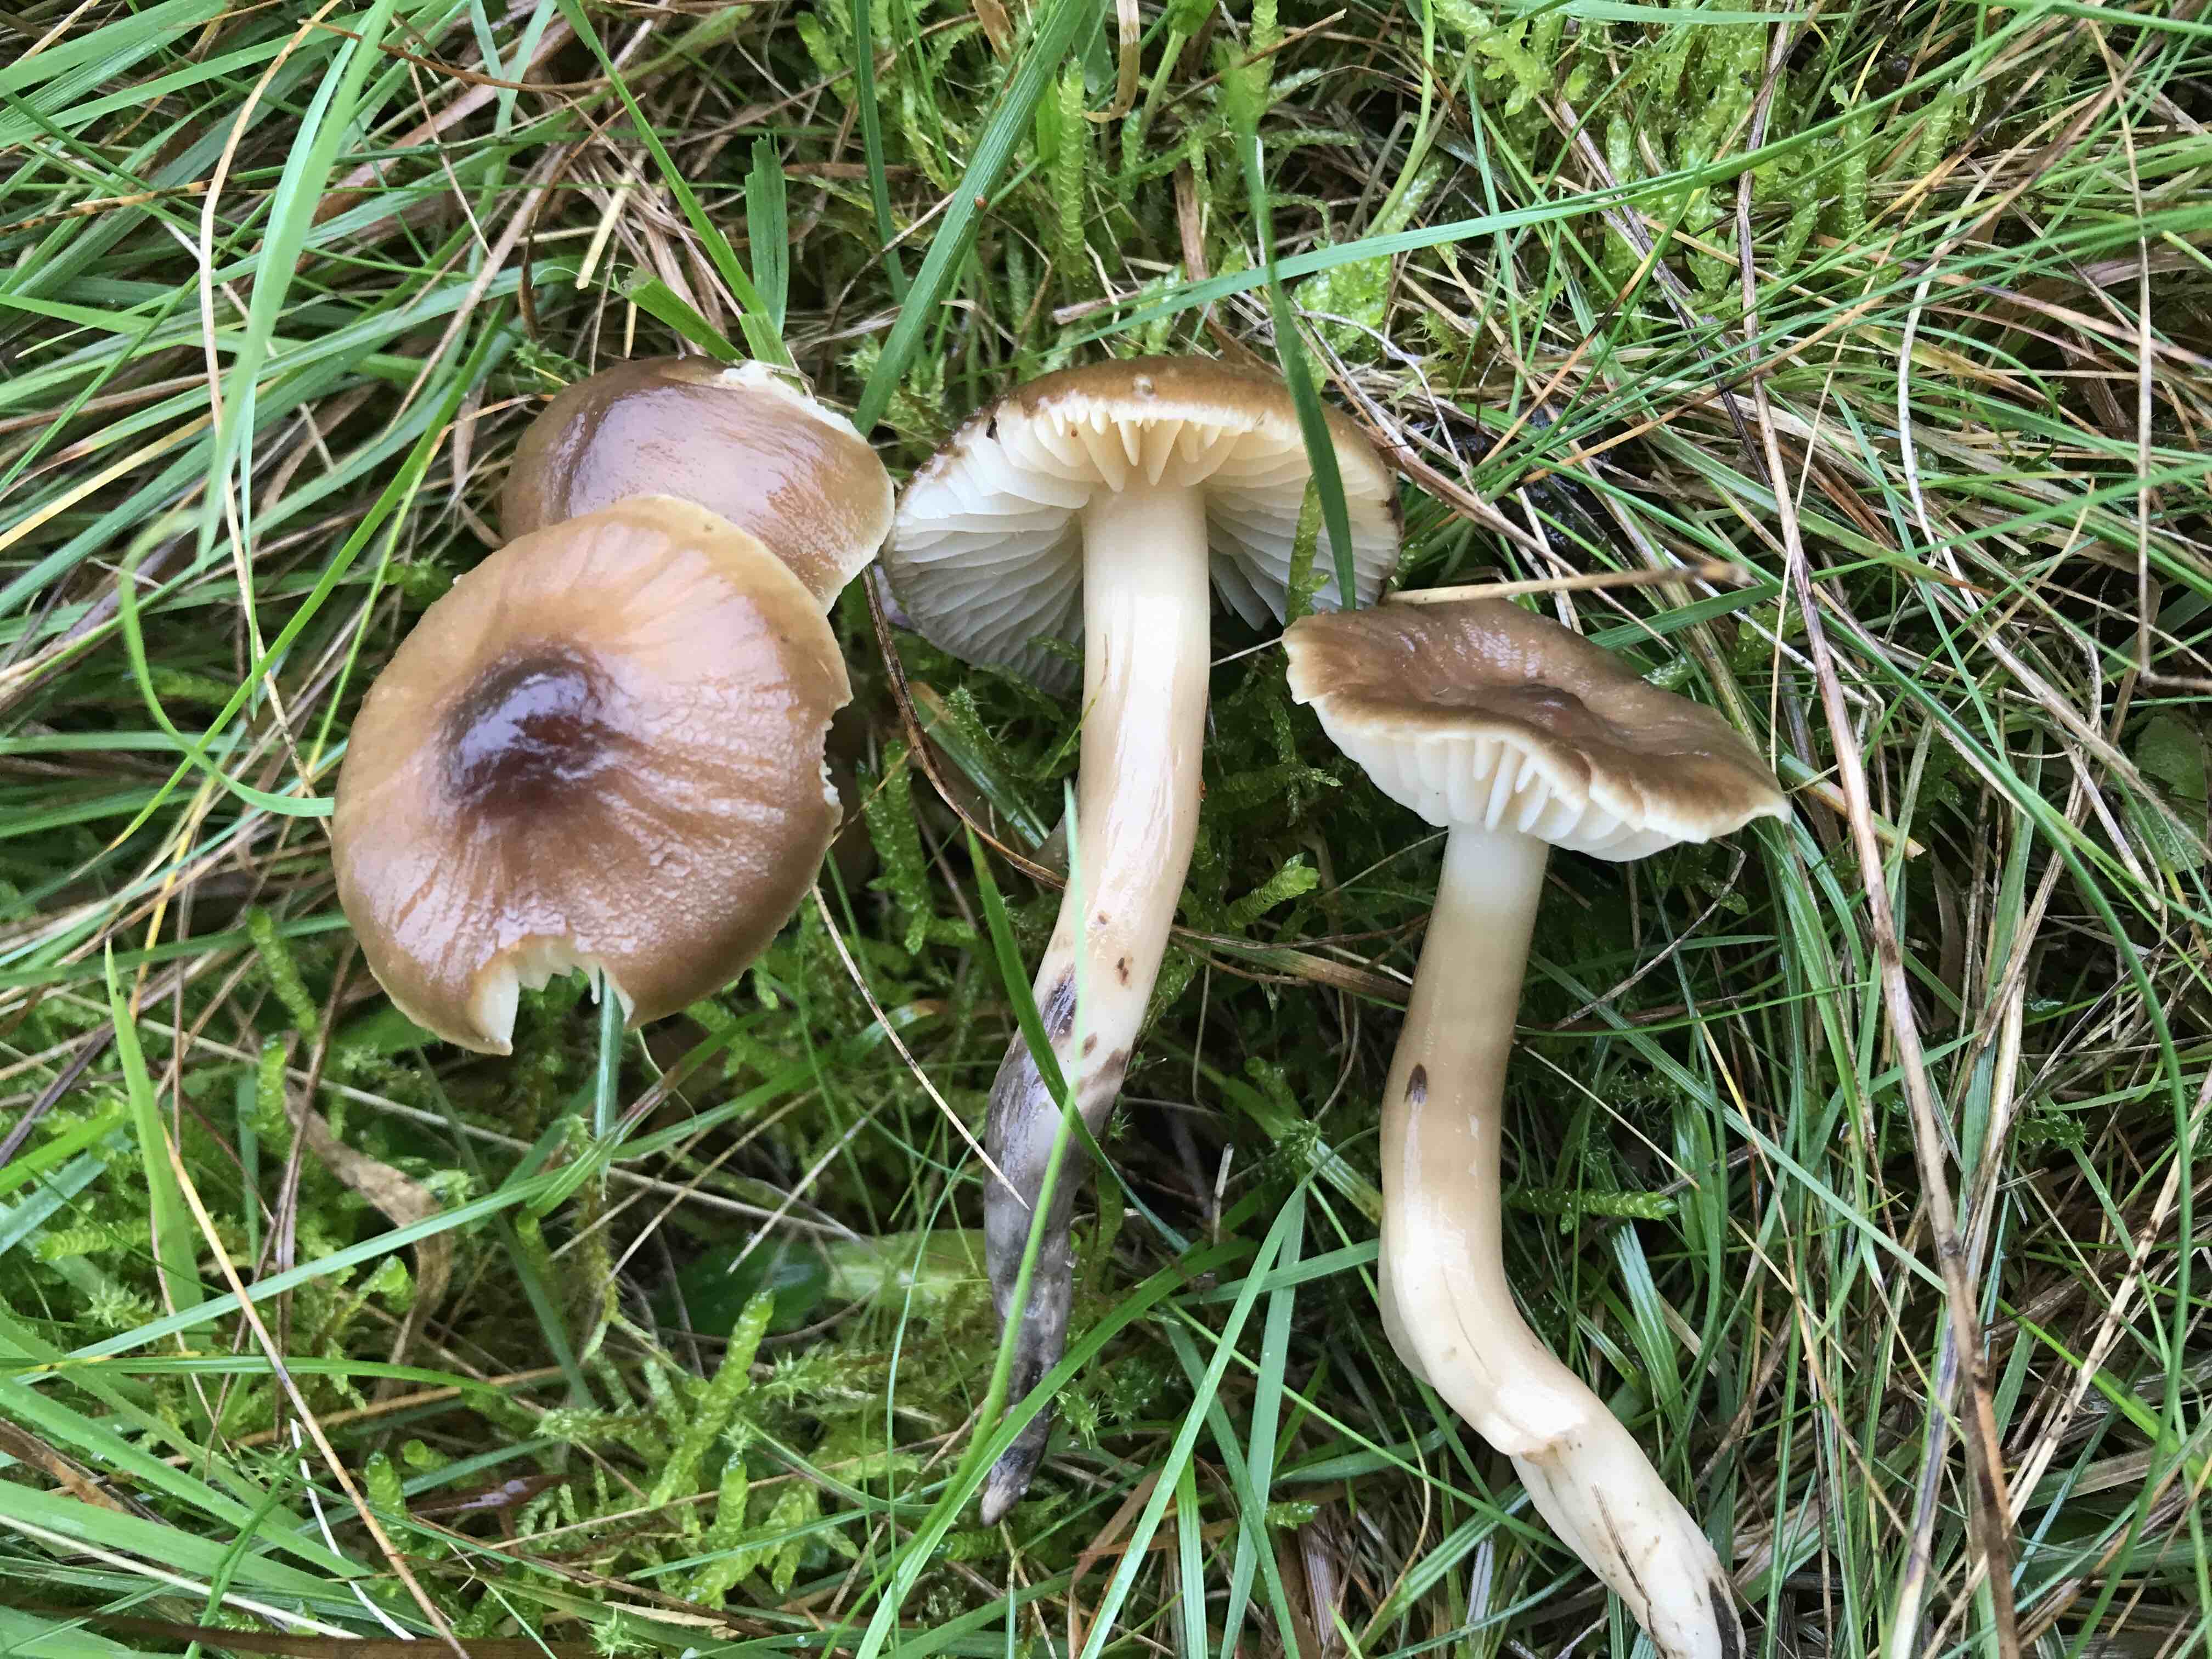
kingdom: Fungi
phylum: Basidiomycota
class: Agaricomycetes
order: Agaricales
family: Hygrophoraceae
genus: Hygrocybe
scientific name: Hygrocybe ingrata
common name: Jensens vokshat
